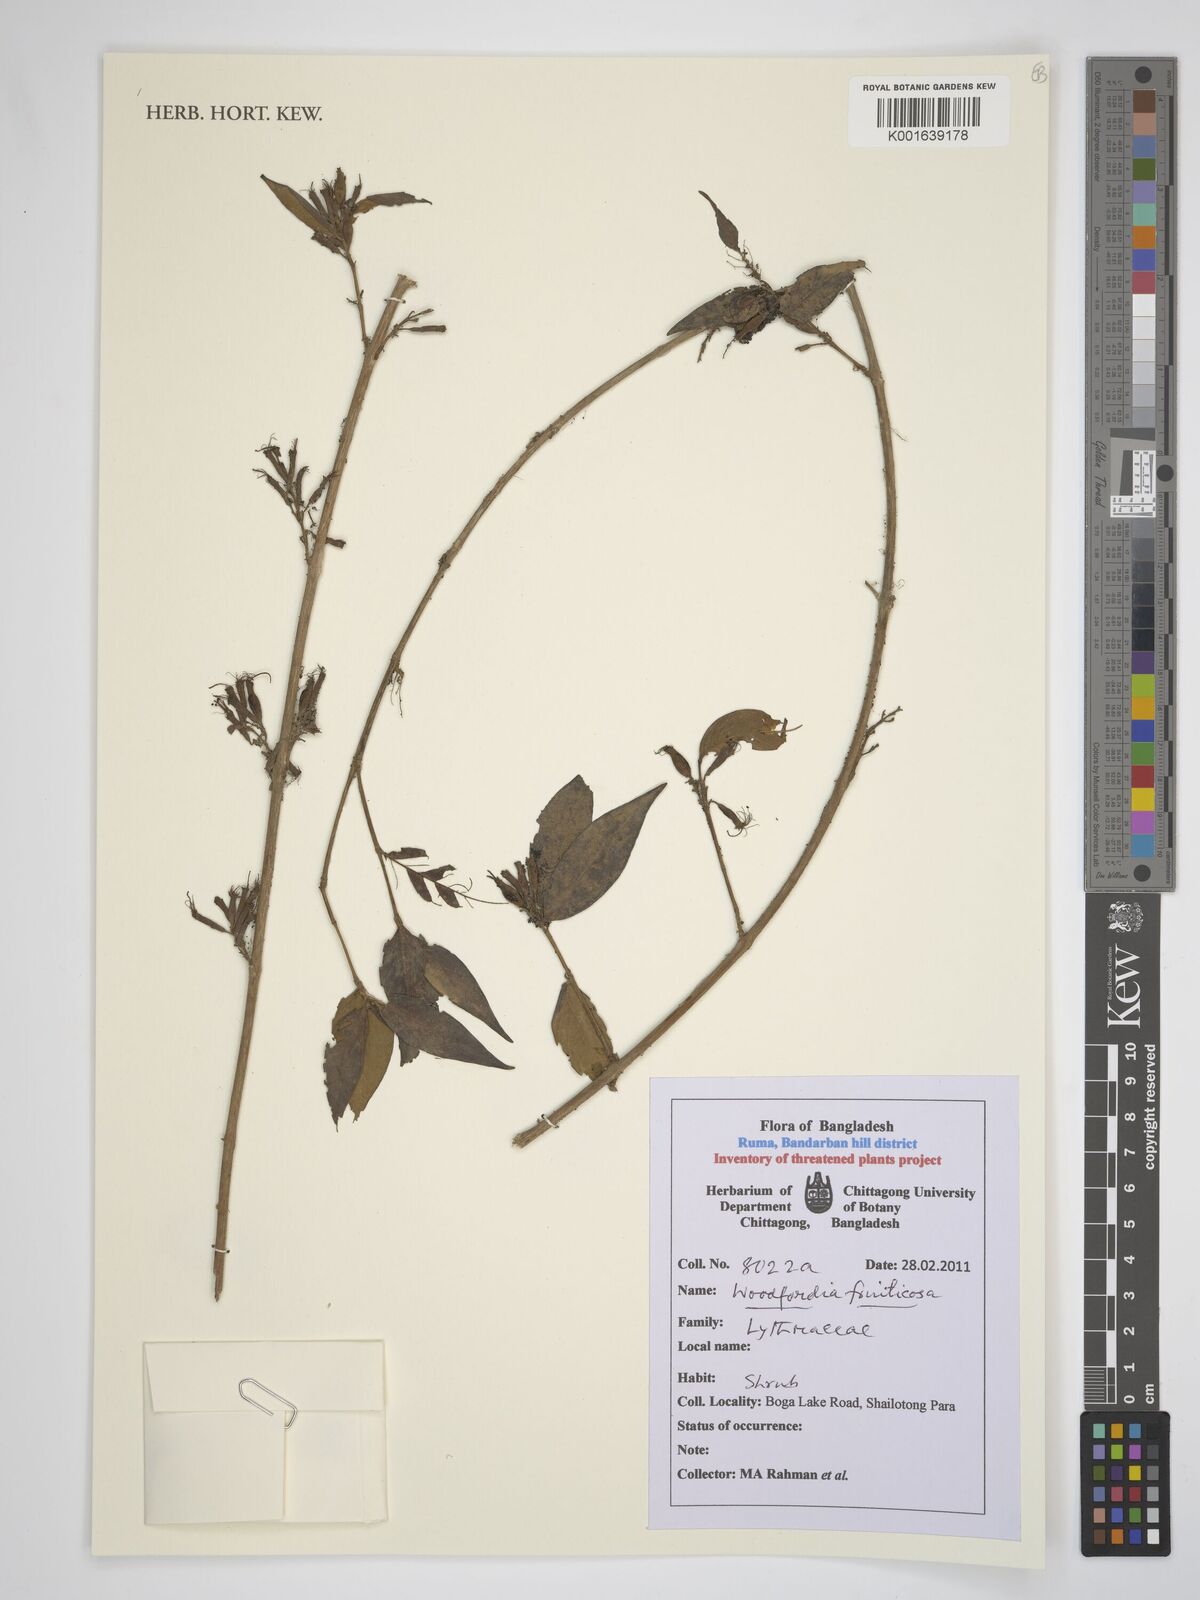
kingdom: Plantae
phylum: Tracheophyta
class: Magnoliopsida
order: Myrtales
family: Lythraceae
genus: Woodfordia
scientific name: Woodfordia fruticosa
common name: Shiranji-tea
